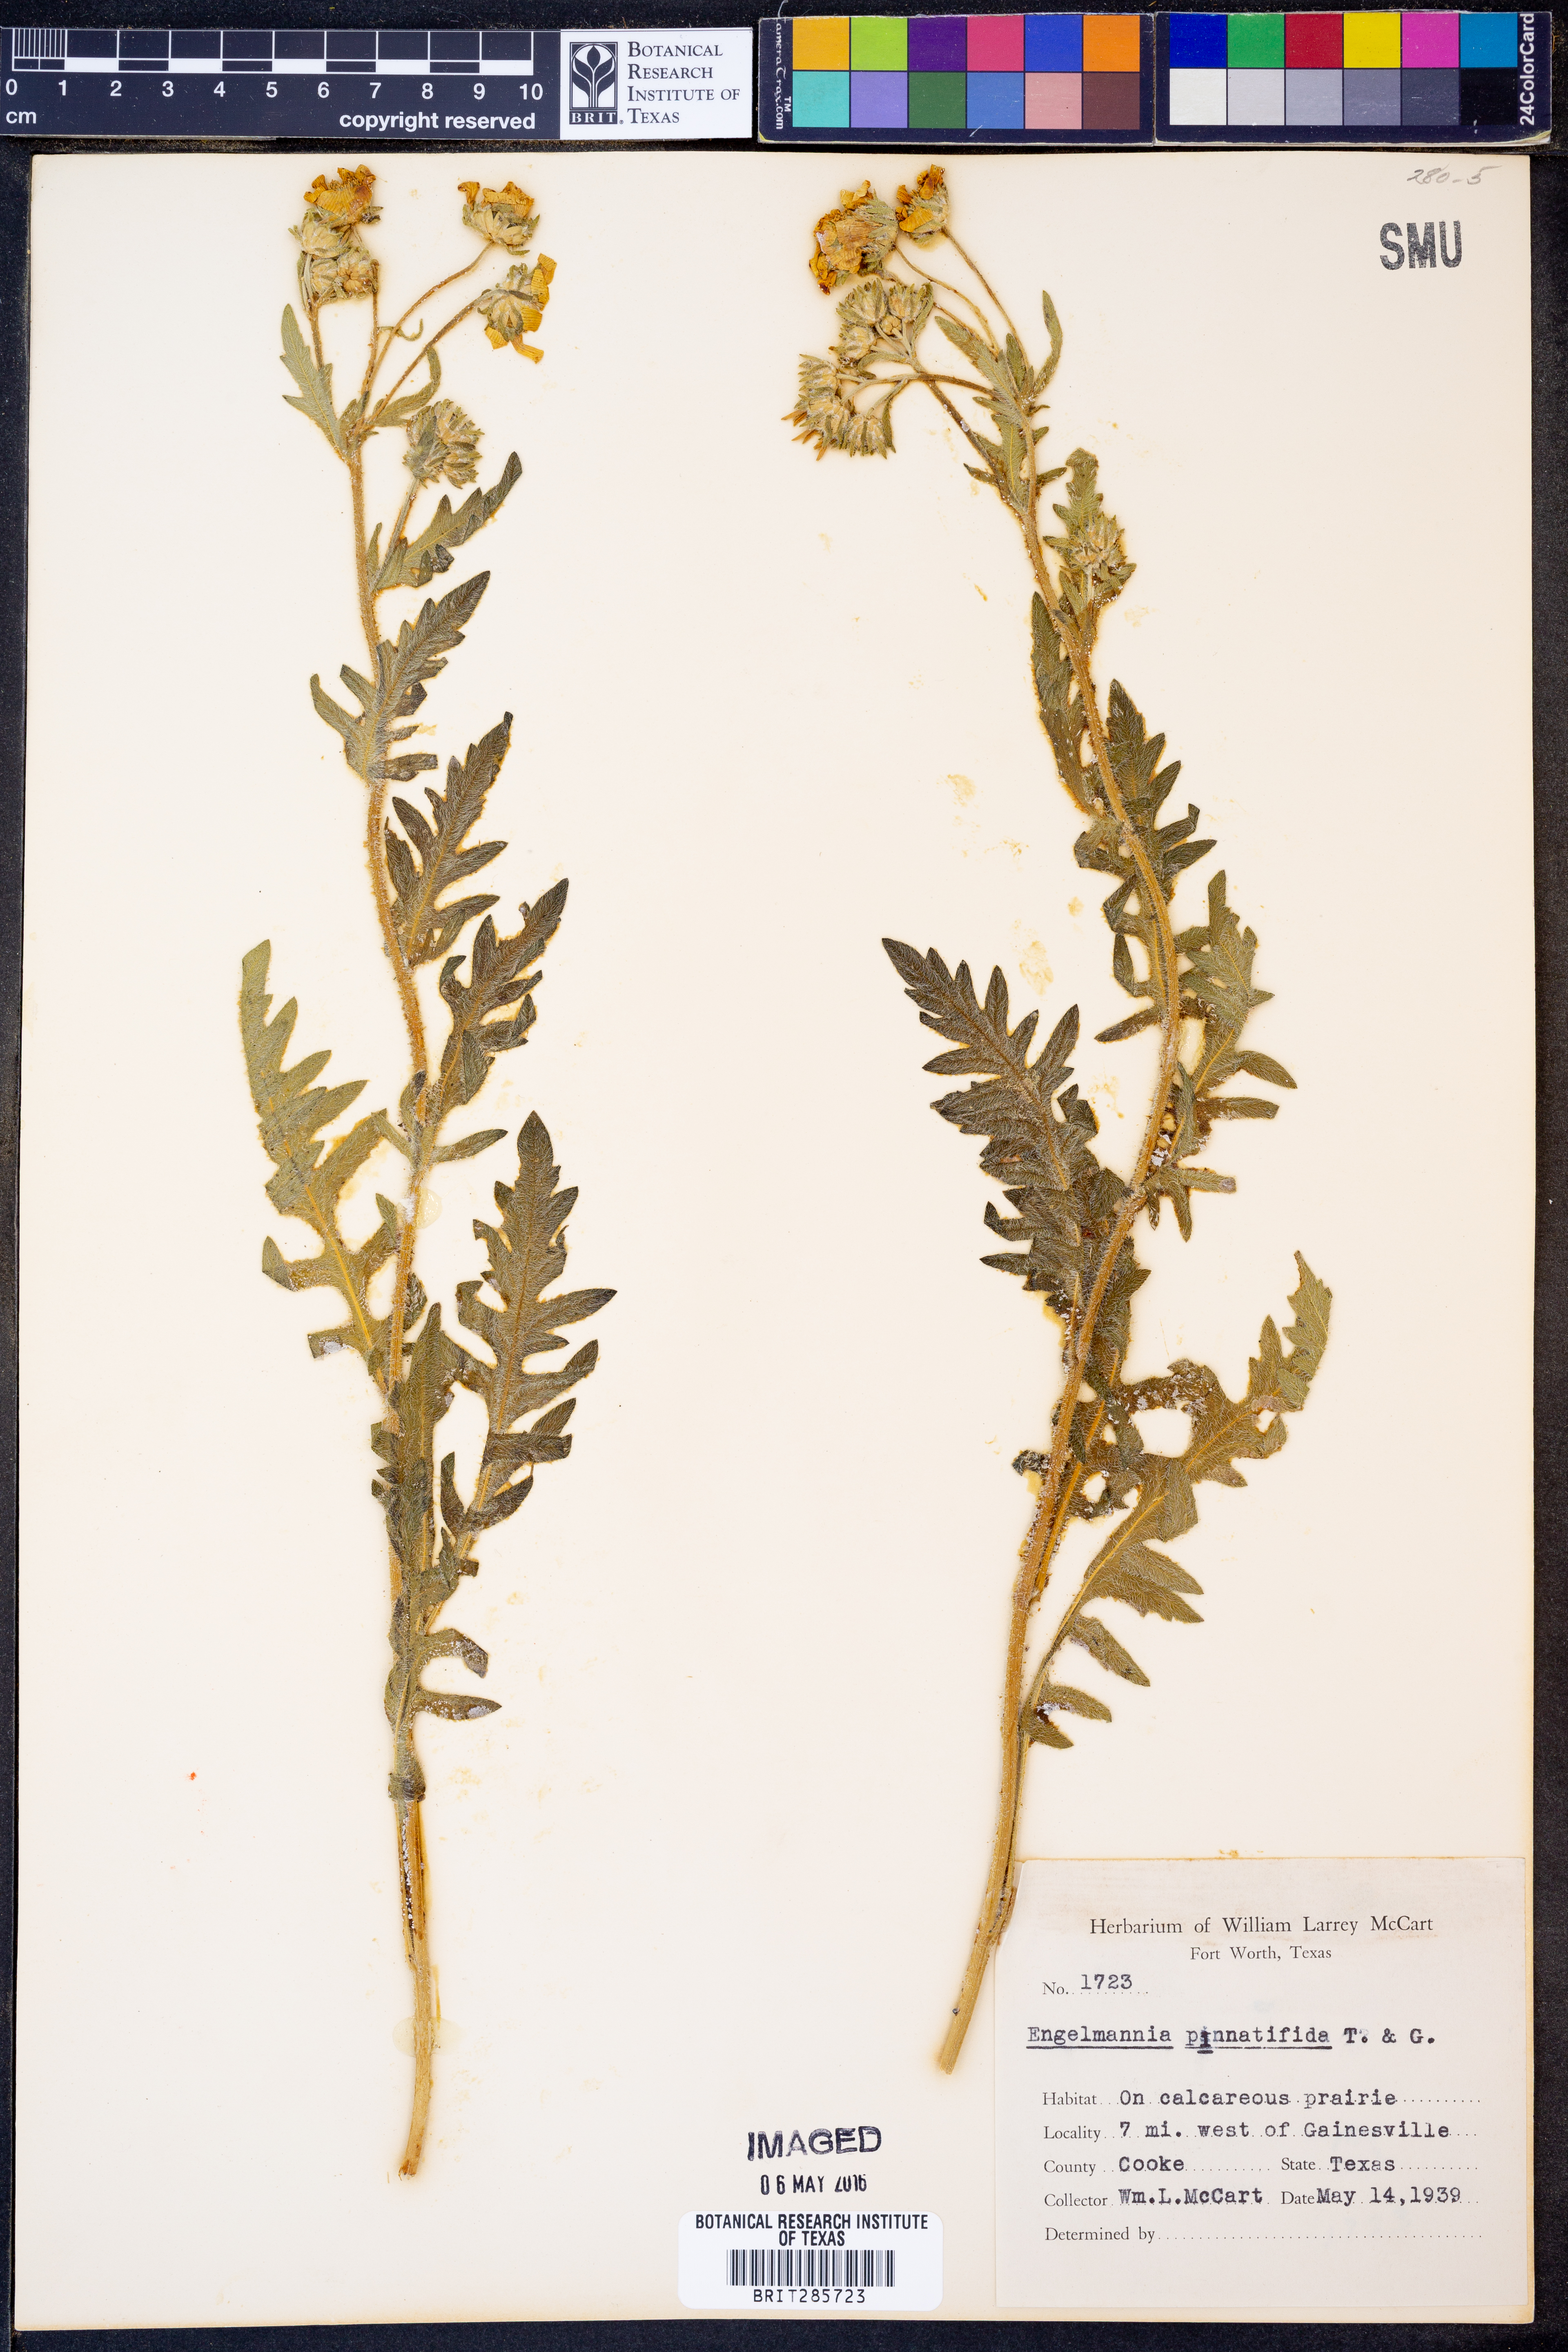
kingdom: Plantae
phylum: Tracheophyta
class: Magnoliopsida
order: Asterales
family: Asteraceae
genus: Engelmannia
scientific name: Engelmannia peristenia
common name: Engelmann's daisy
